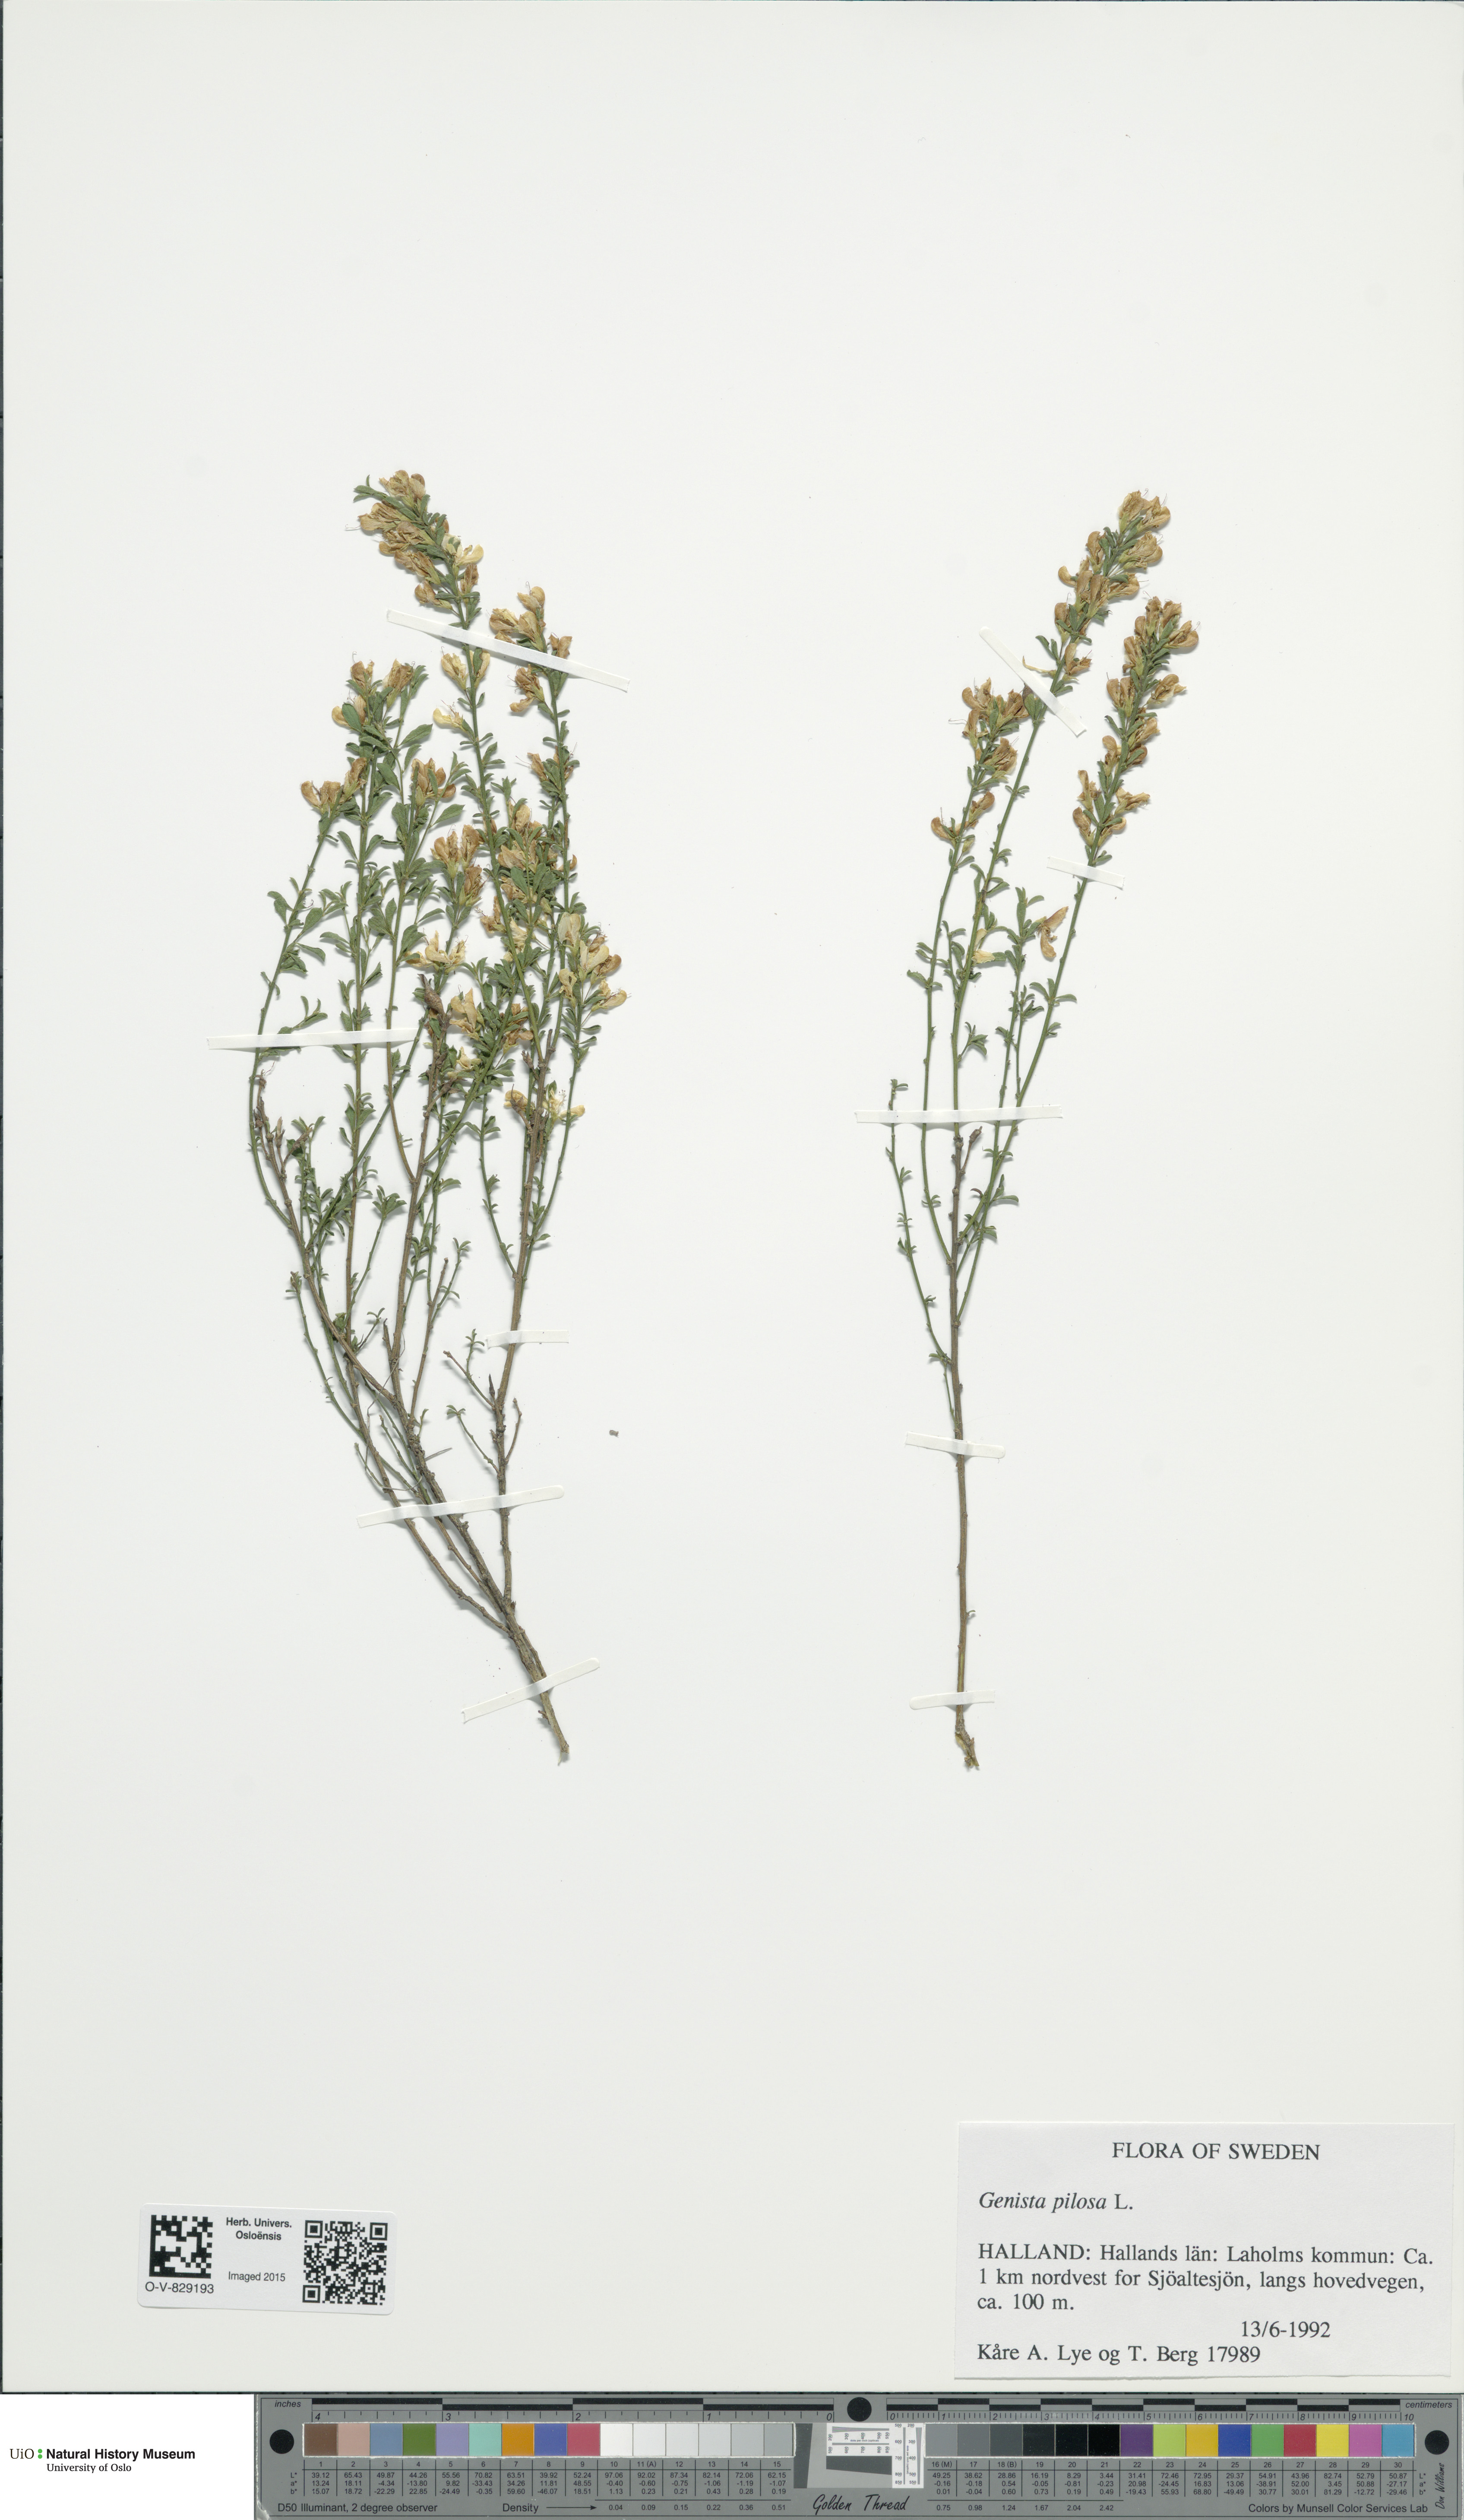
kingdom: Plantae
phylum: Tracheophyta
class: Magnoliopsida
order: Fabales
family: Fabaceae
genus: Genista
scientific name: Genista pilosa
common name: Hairy greenweed
